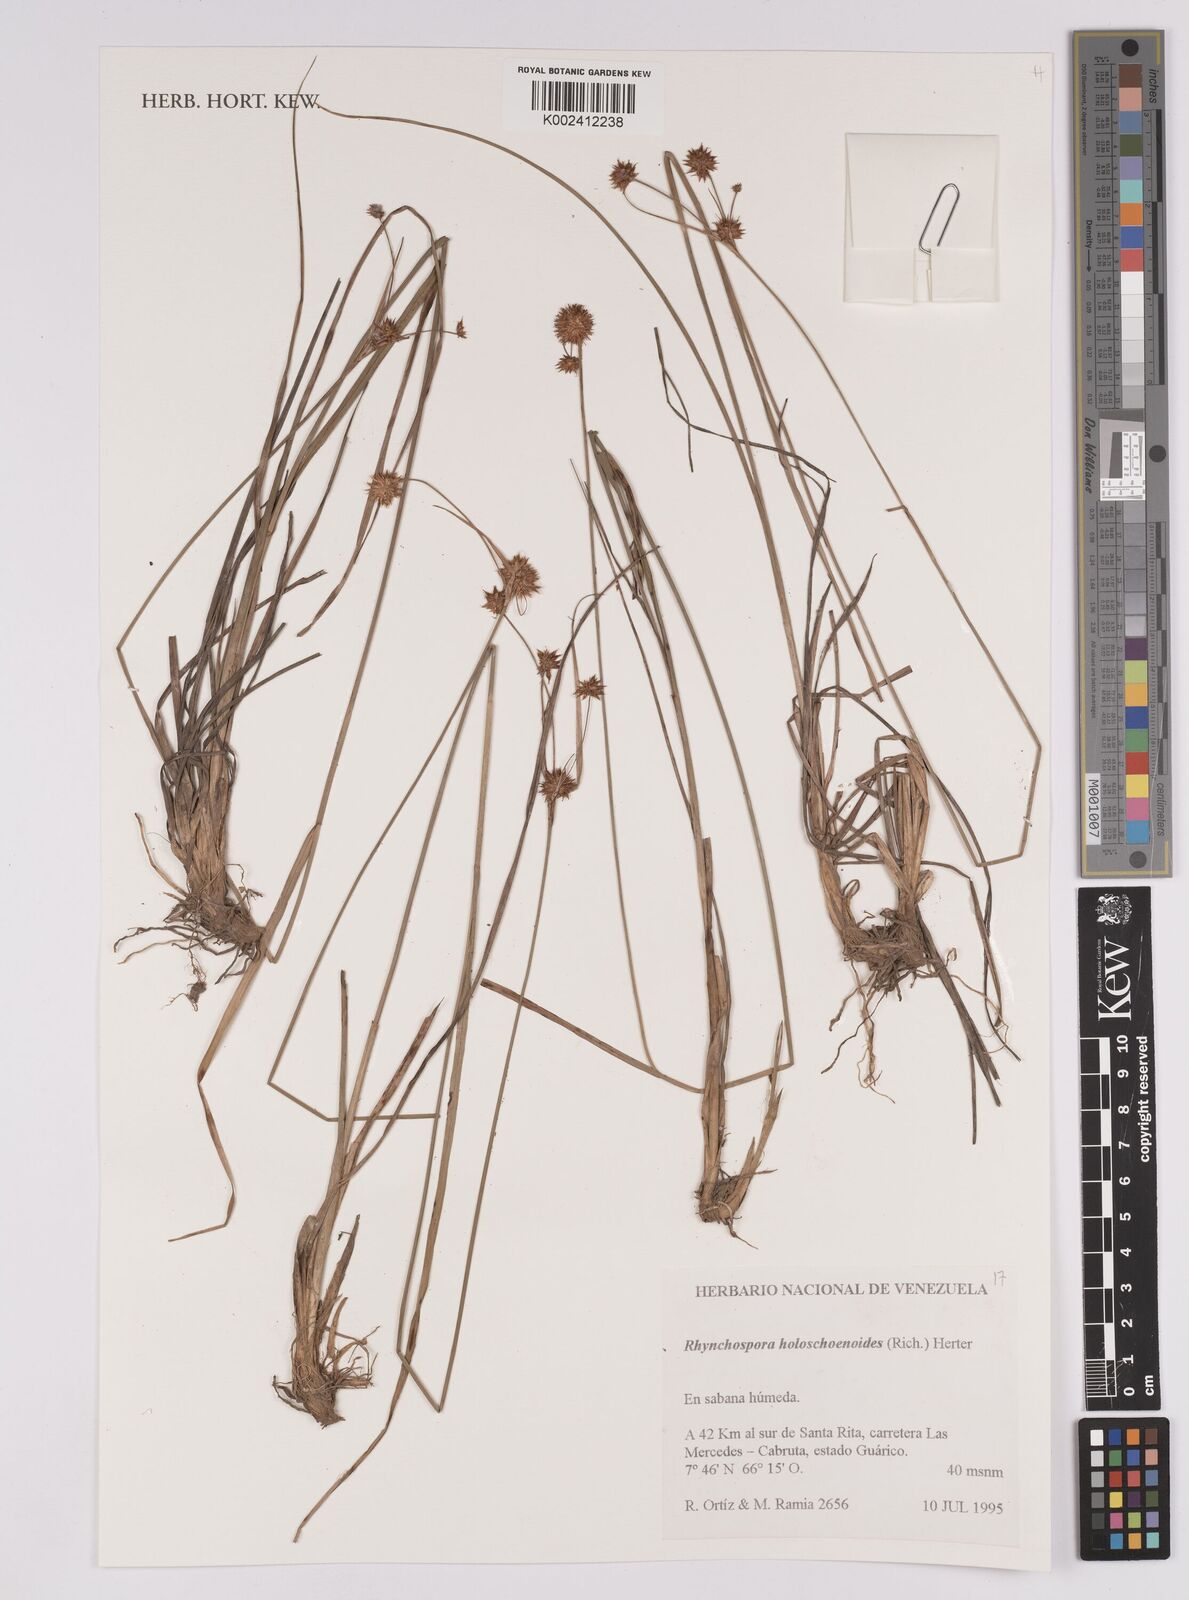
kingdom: Plantae
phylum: Tracheophyta
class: Liliopsida
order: Poales
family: Cyperaceae
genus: Rhynchospora
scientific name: Rhynchospora holoschoenoides
